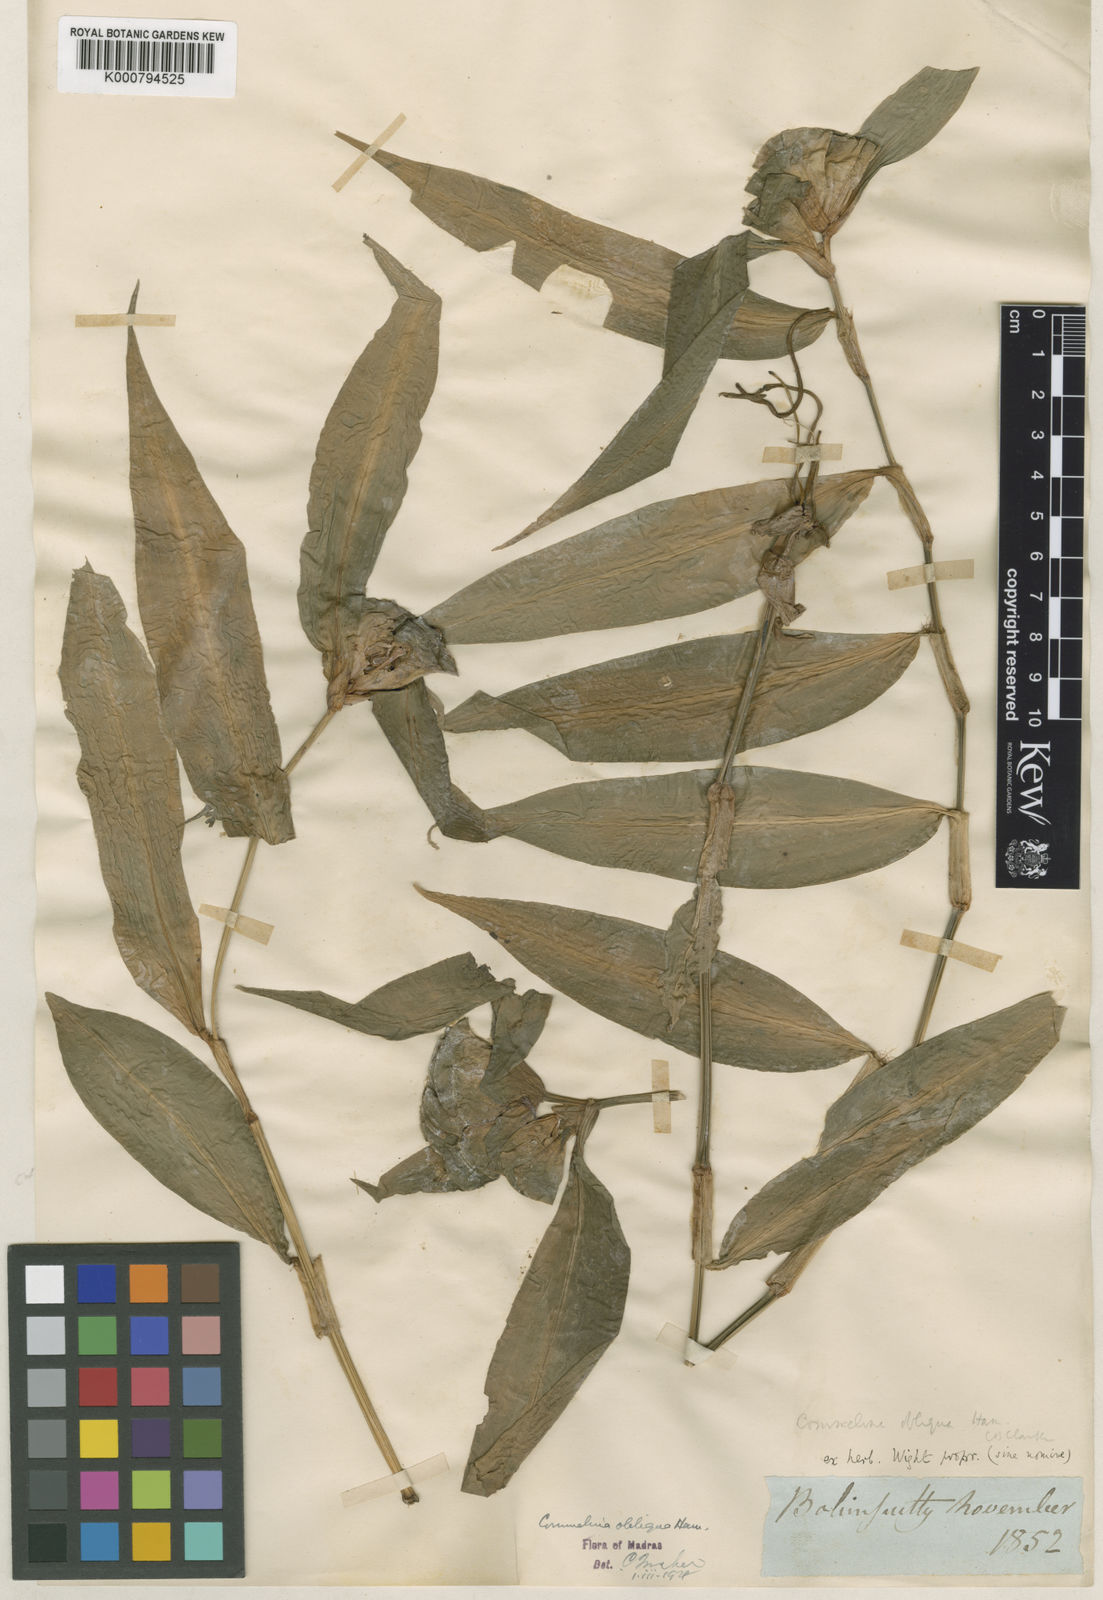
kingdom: Plantae
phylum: Tracheophyta
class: Liliopsida
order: Commelinales
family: Commelinaceae
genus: Commelina
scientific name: Commelina paludosa
